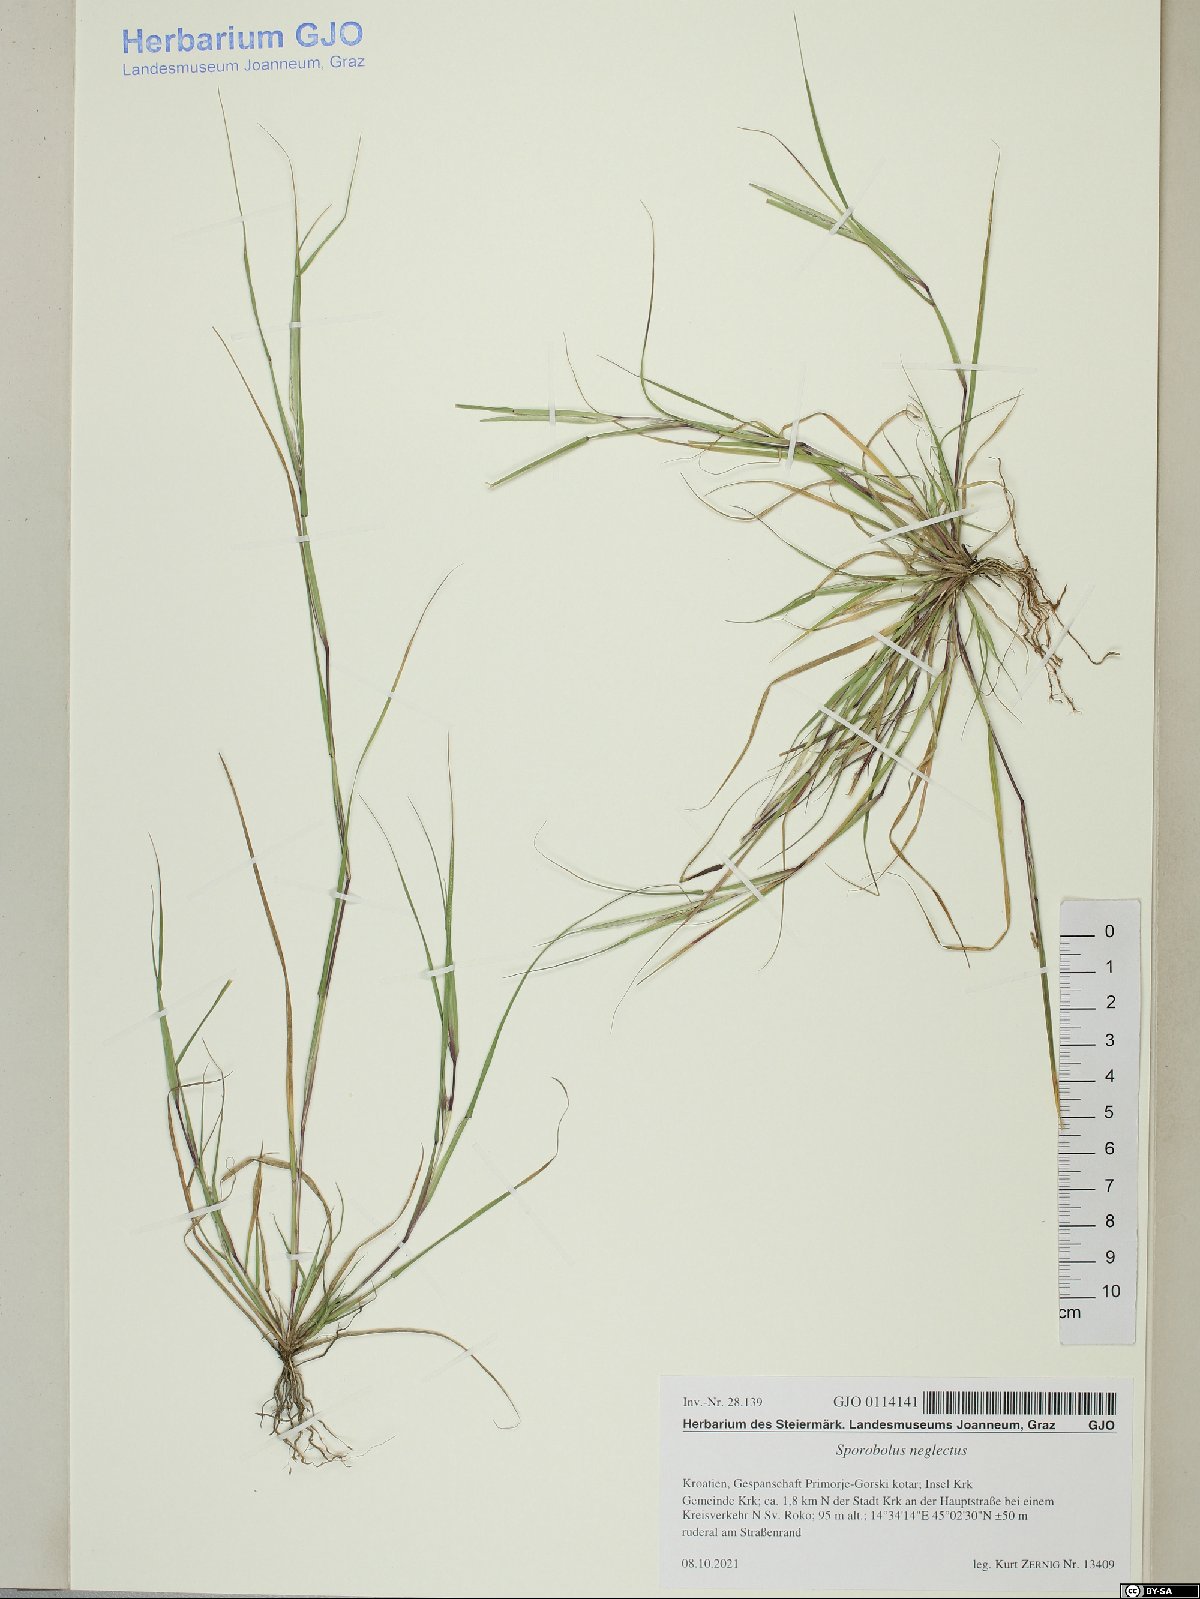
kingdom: Plantae
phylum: Tracheophyta
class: Liliopsida
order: Poales
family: Poaceae
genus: Sporobolus
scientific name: Sporobolus neglectus
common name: Annual dropseed
